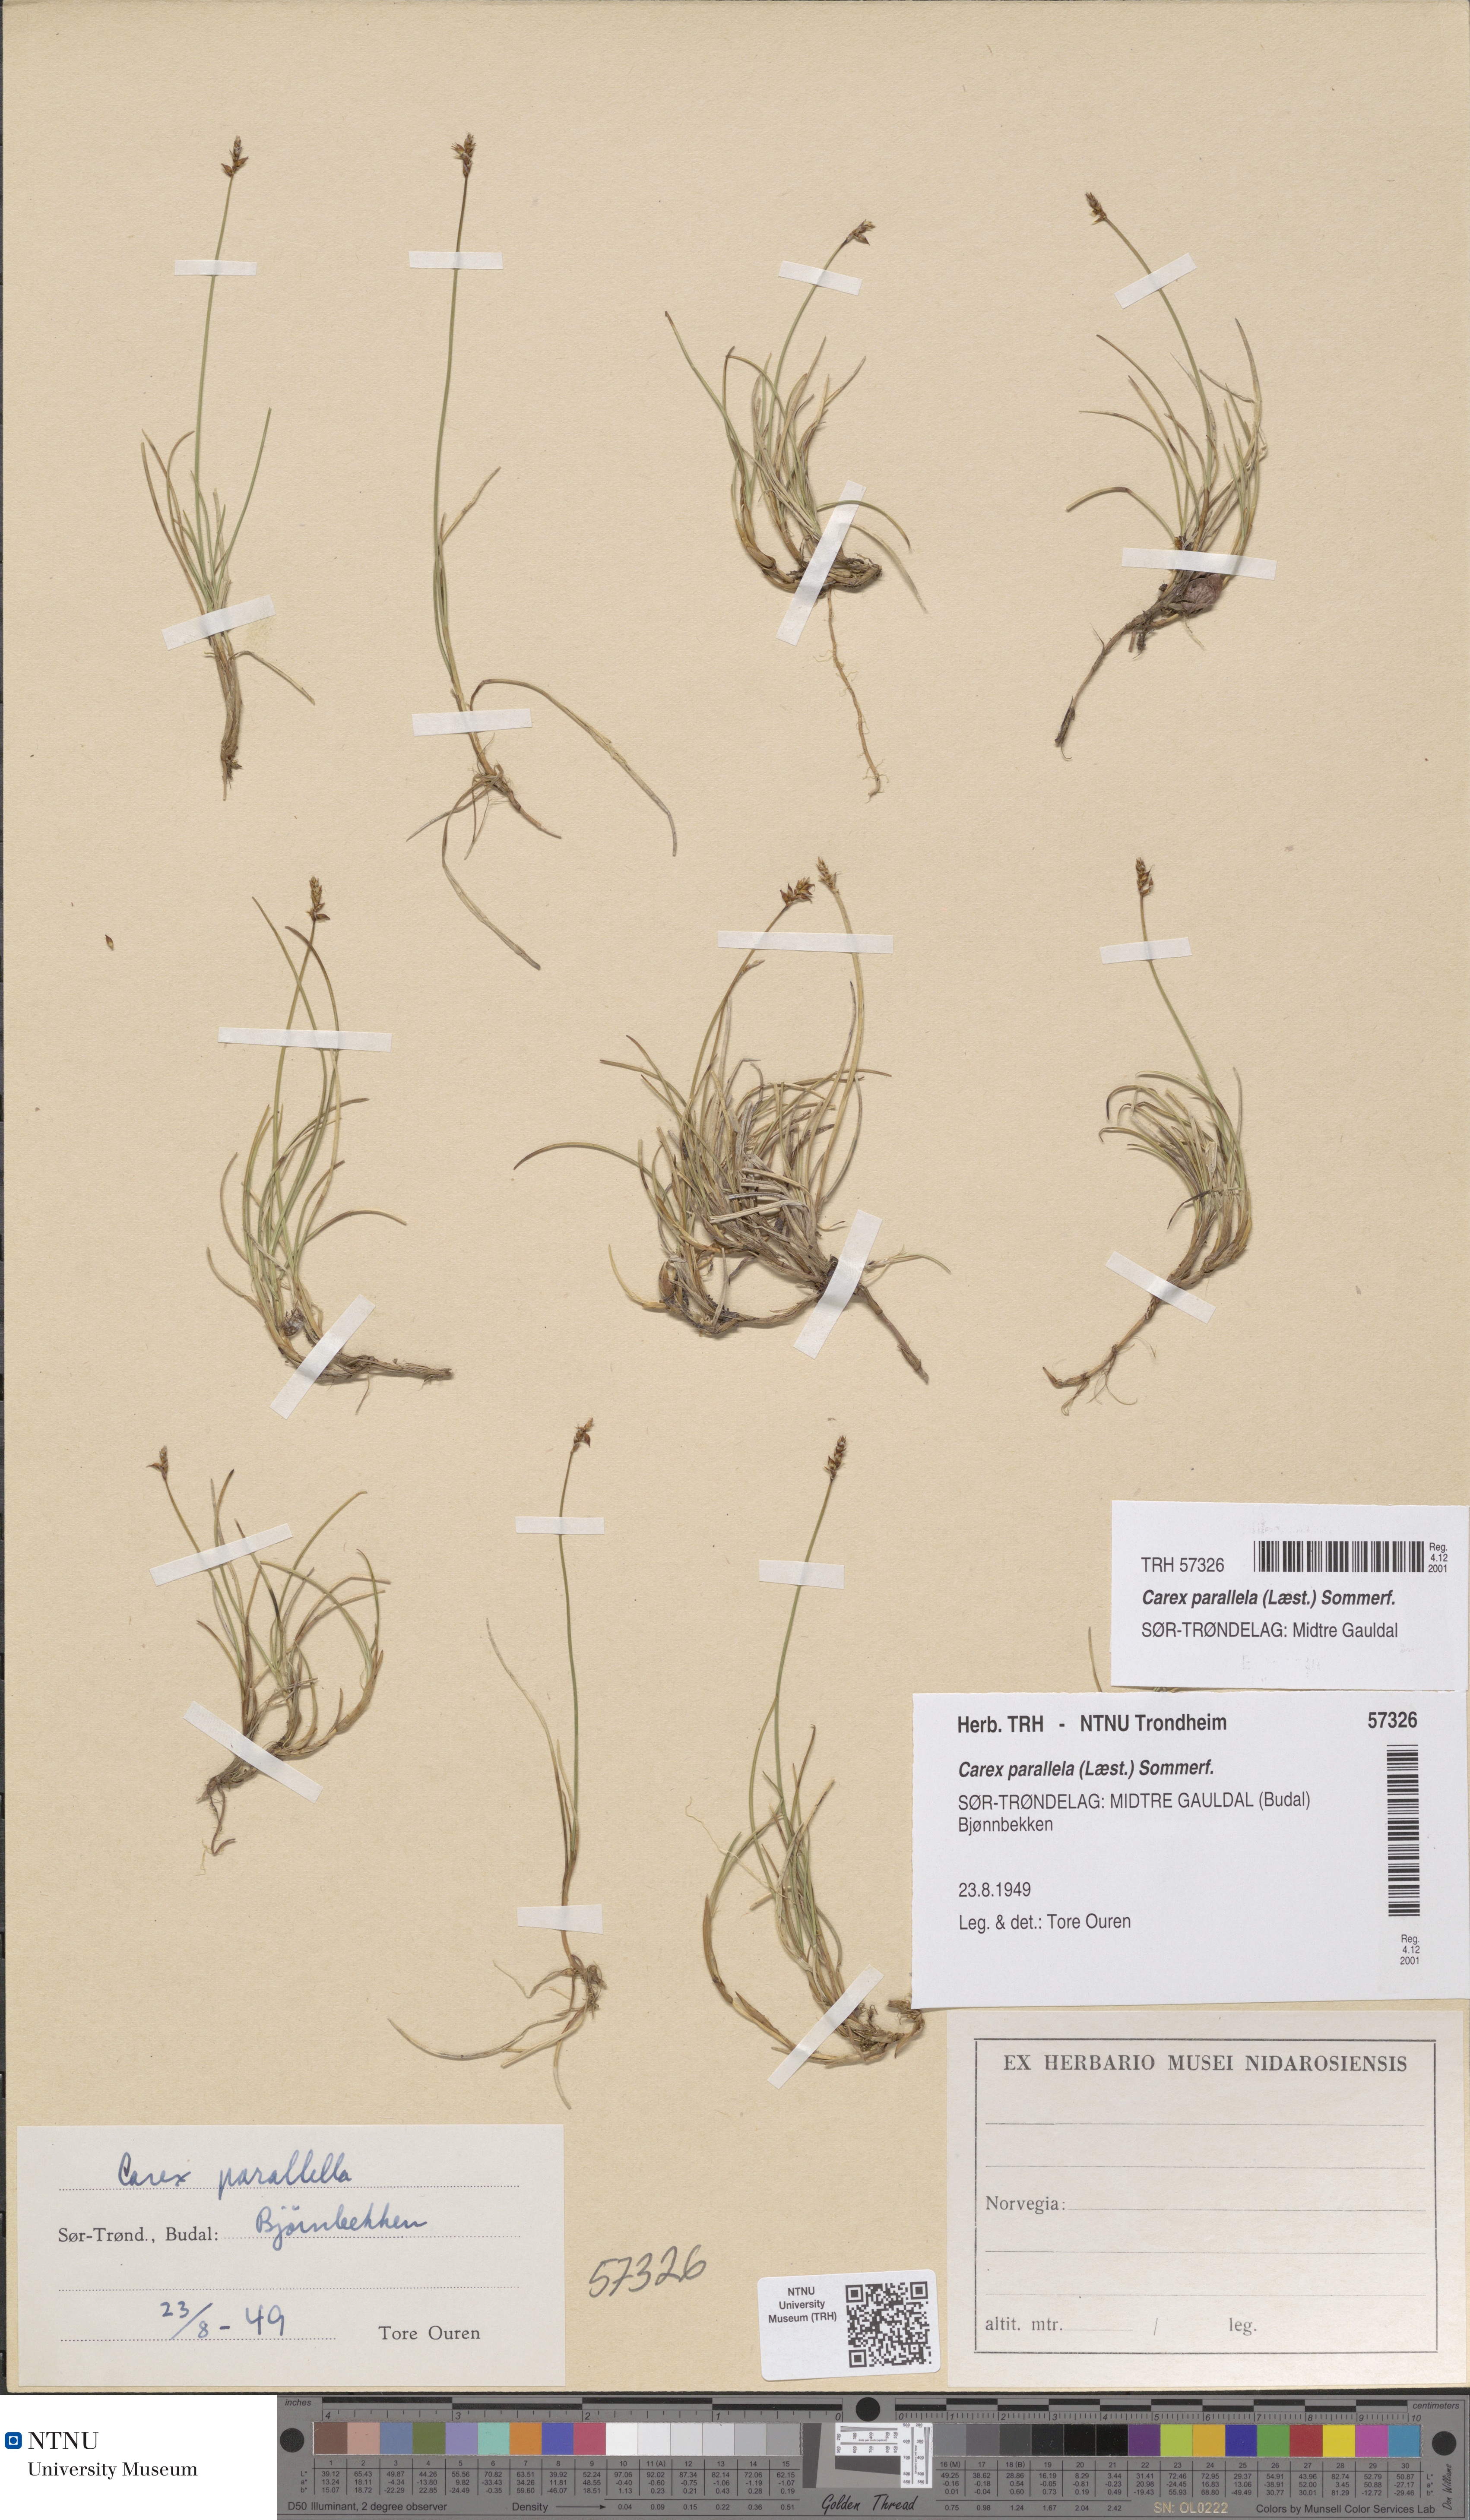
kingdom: Plantae
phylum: Tracheophyta
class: Liliopsida
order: Poales
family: Cyperaceae
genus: Carex
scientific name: Carex parallela
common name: Parallel sedge
